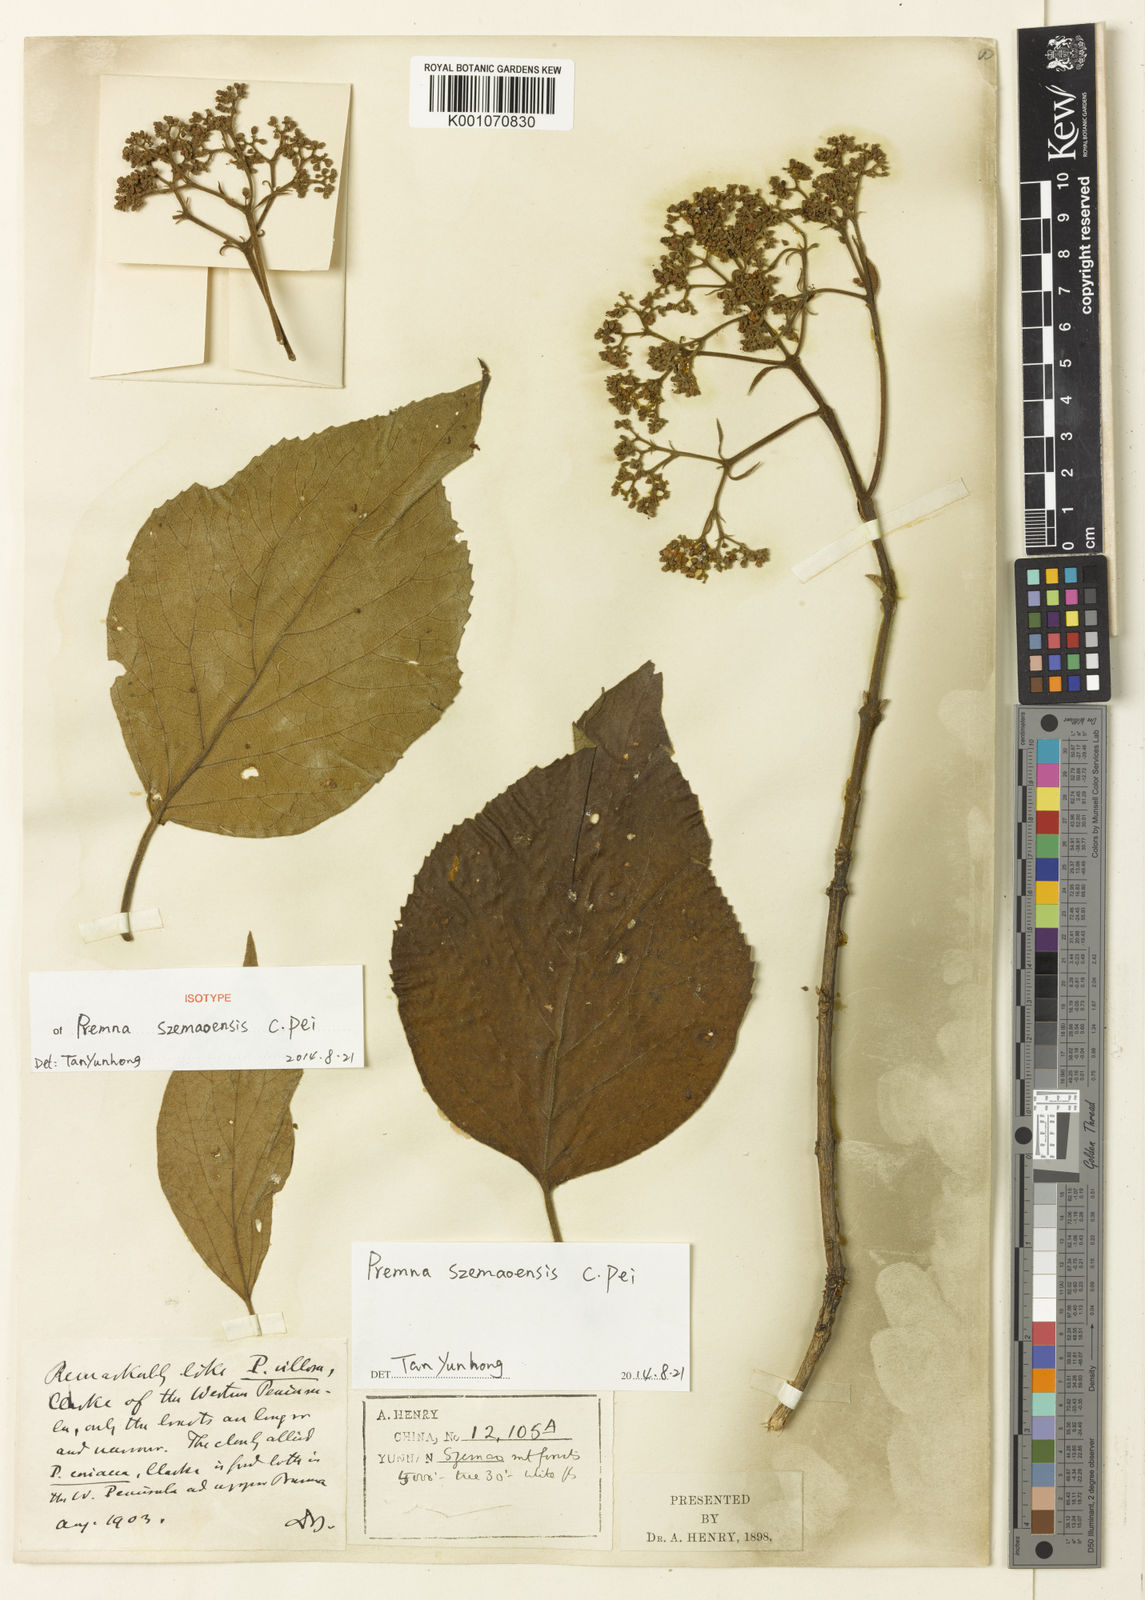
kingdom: Plantae
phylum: Tracheophyta
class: Magnoliopsida
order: Lamiales
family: Lamiaceae
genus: Premna
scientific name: Premna szemaoensis
